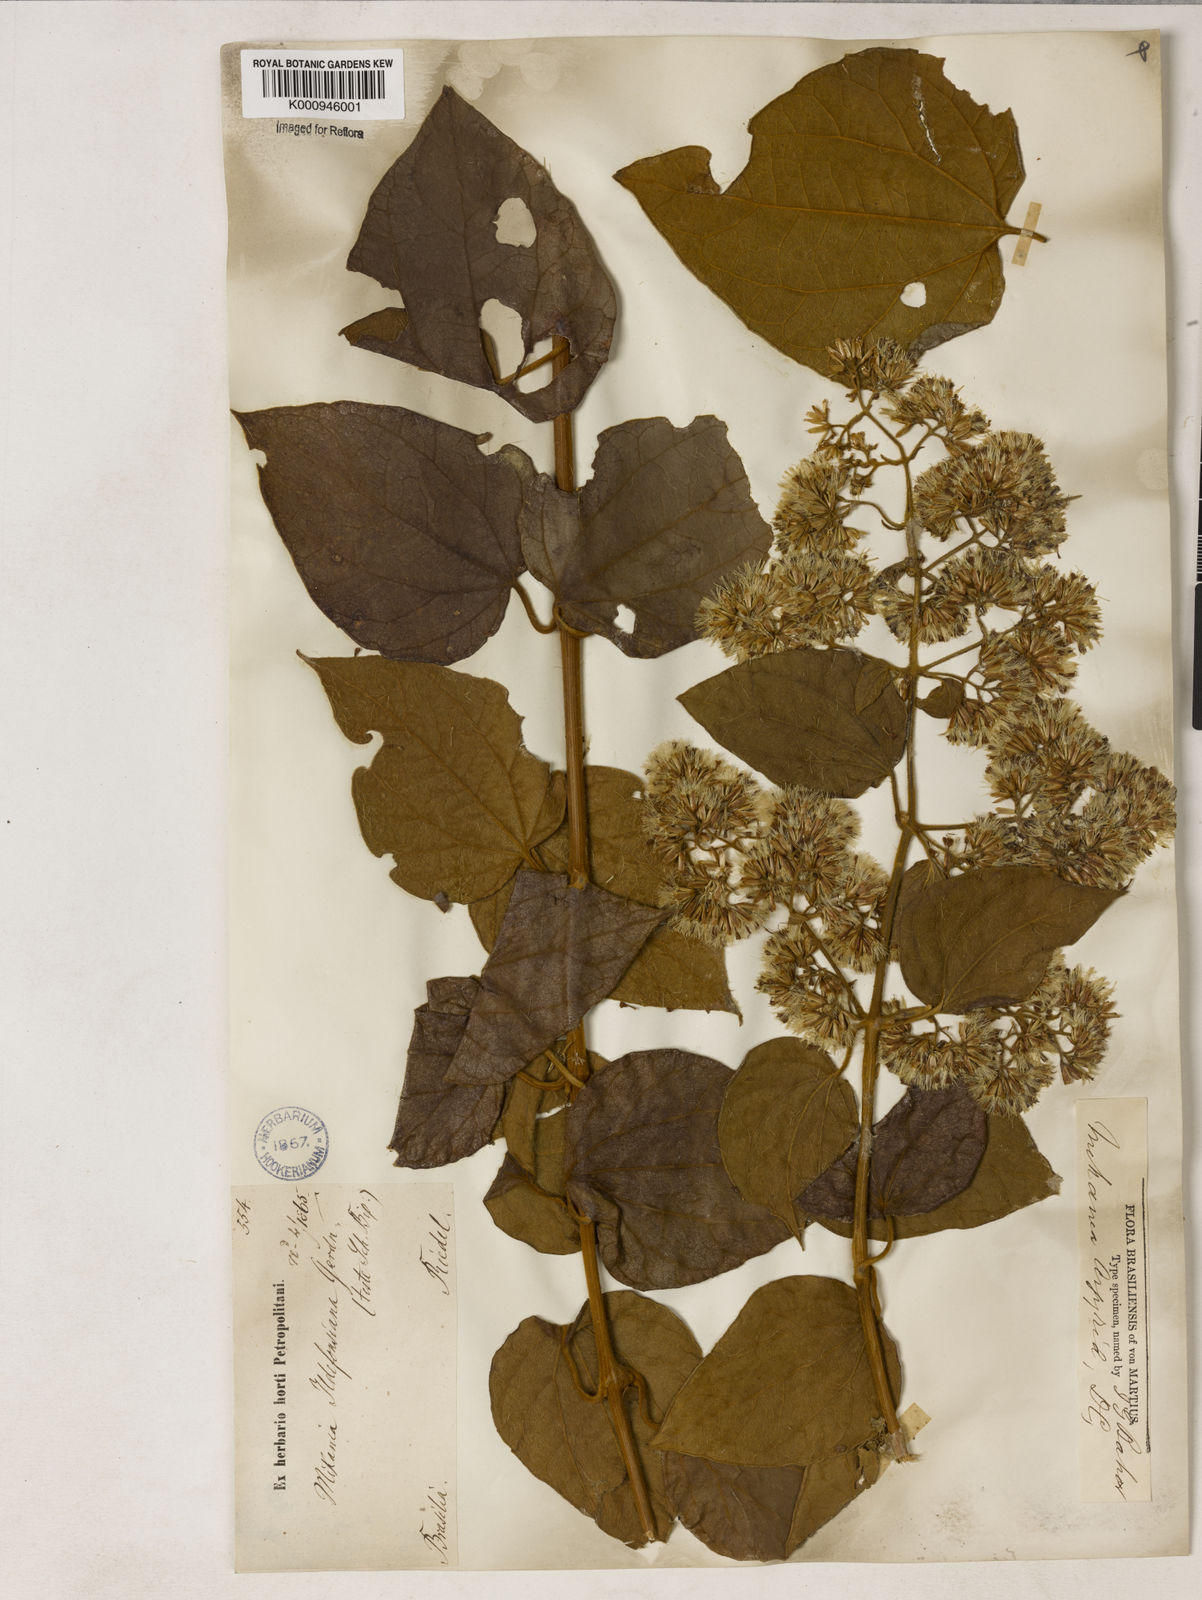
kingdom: Plantae
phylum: Tracheophyta
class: Magnoliopsida
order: Asterales
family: Asteraceae
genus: Mikania
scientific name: Mikania
